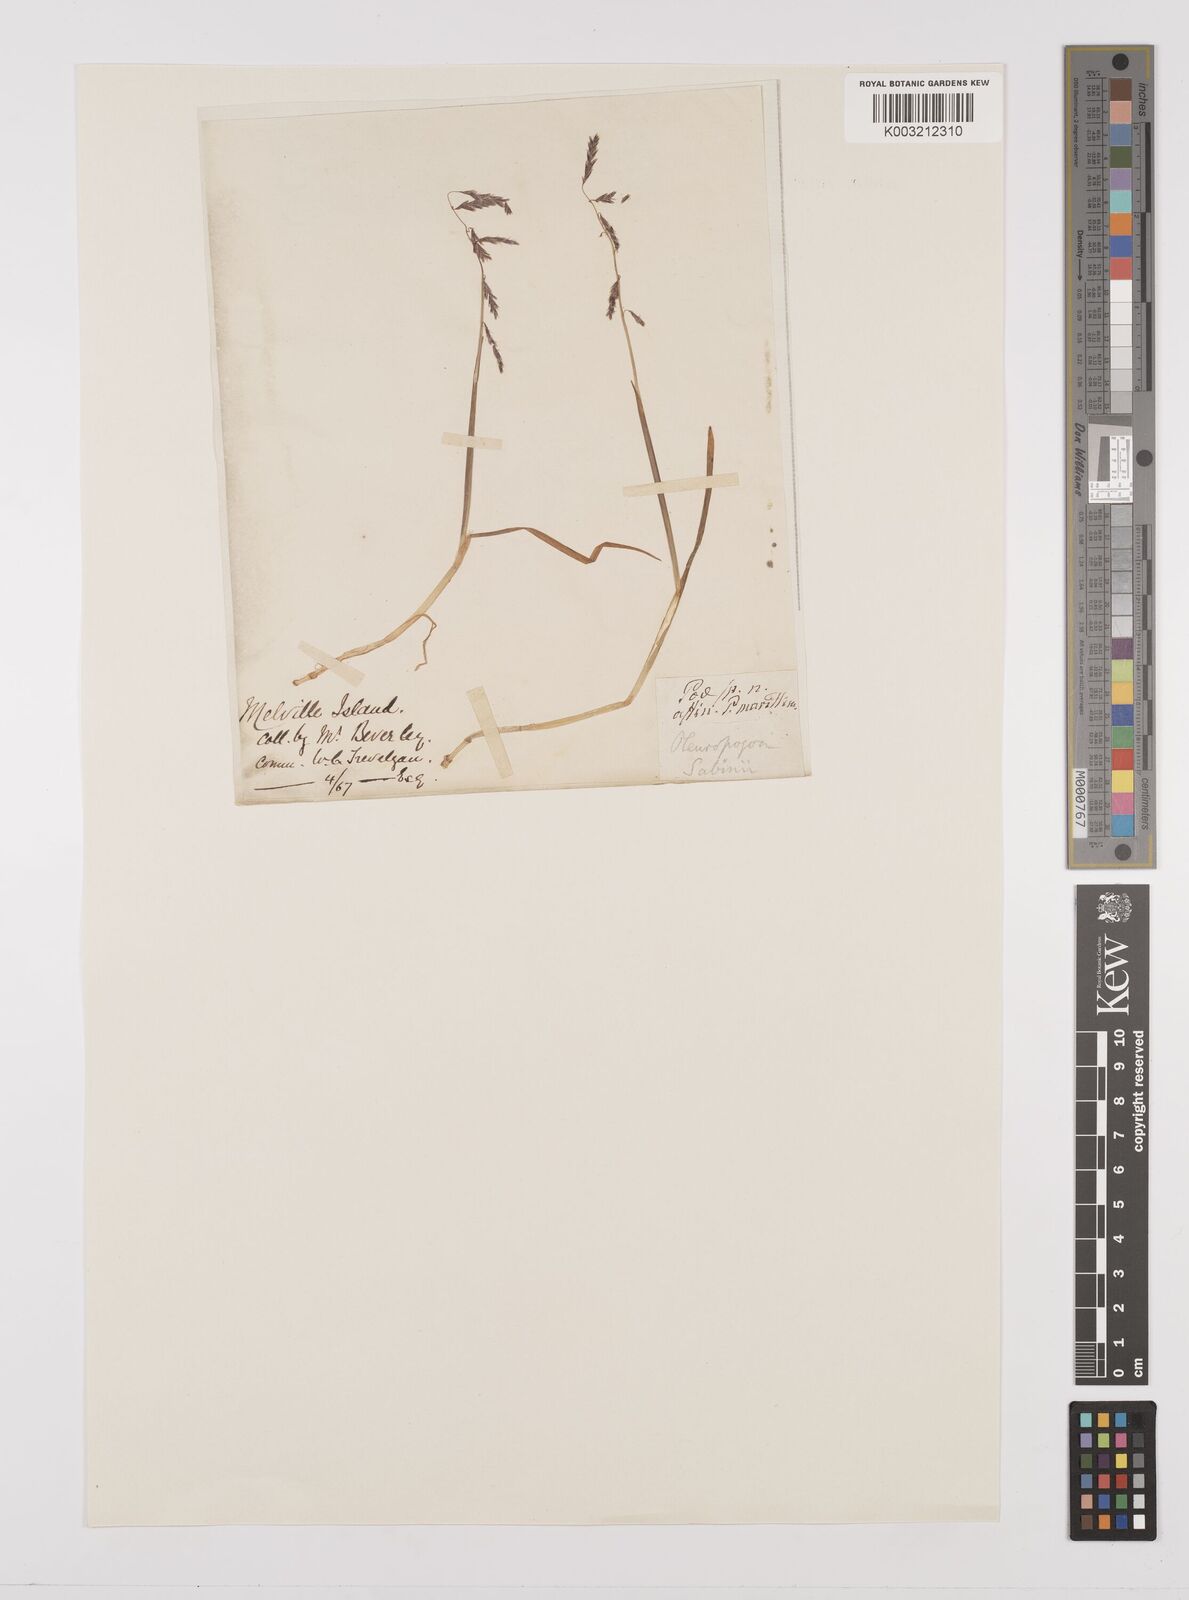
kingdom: Plantae
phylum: Tracheophyta
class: Liliopsida
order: Poales
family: Poaceae
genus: Pleuropogon
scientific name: Pleuropogon sabinei
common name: Sabine's false semaphoregrass
